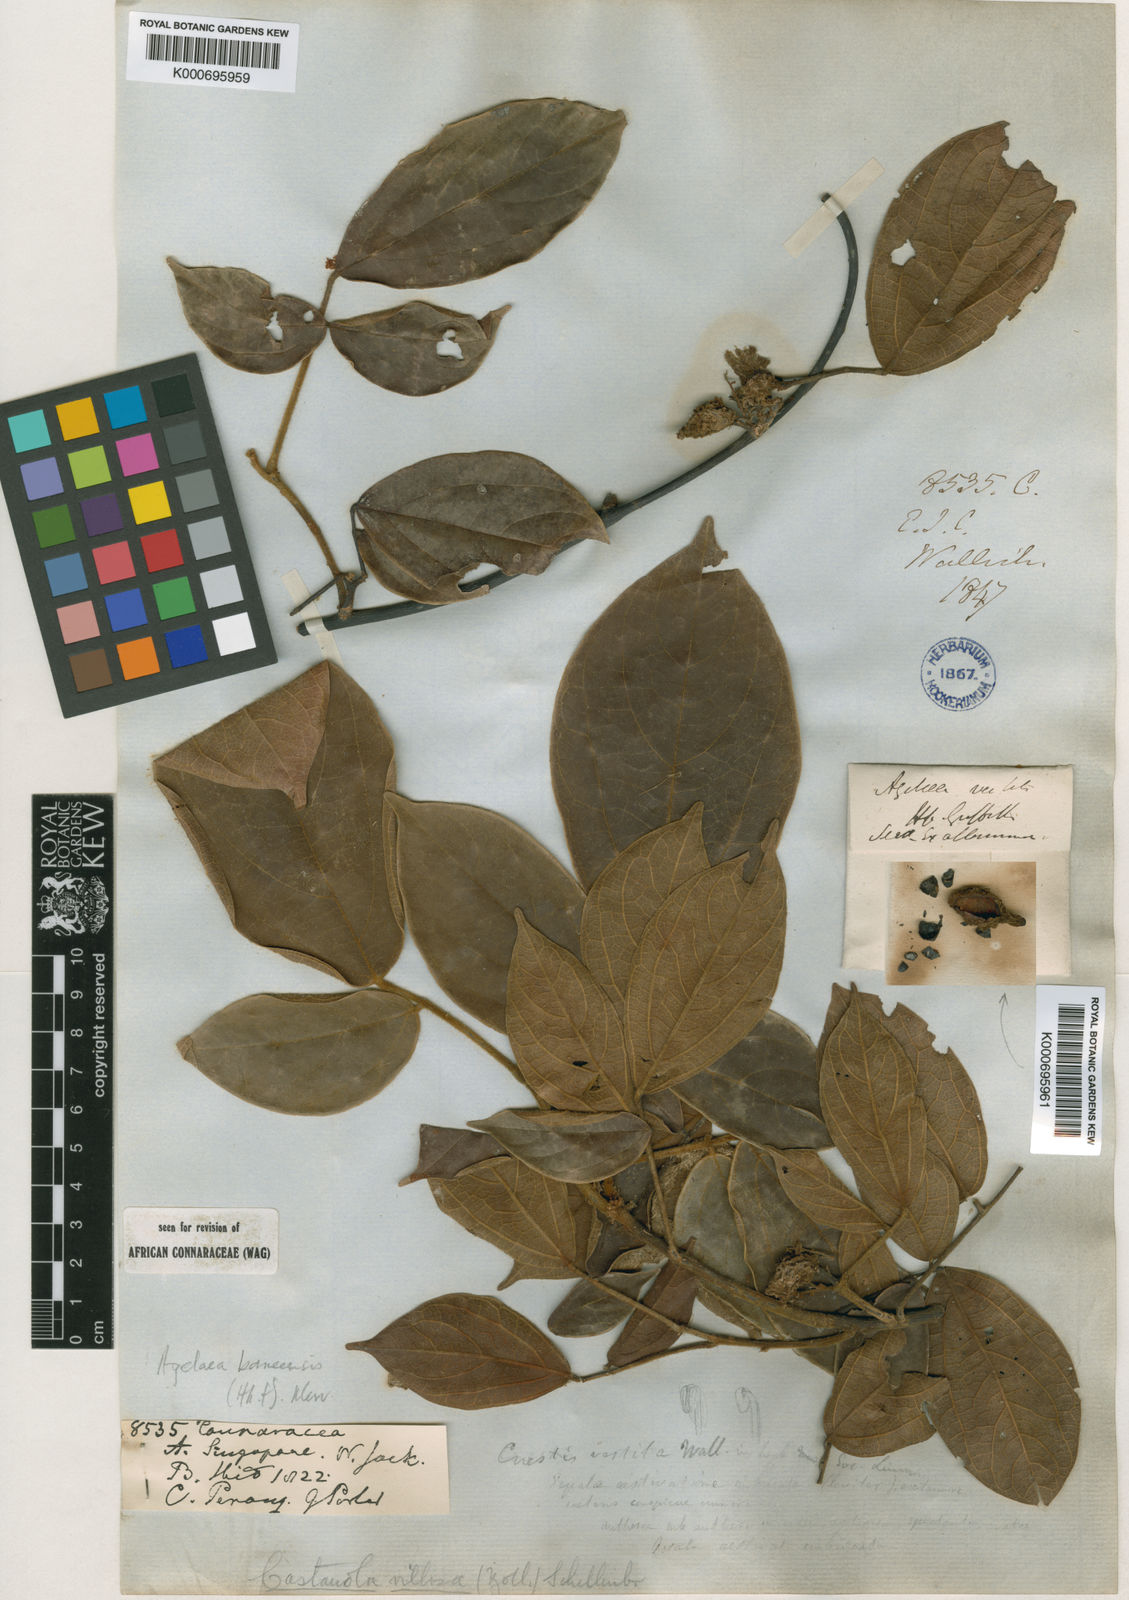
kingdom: Plantae
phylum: Tracheophyta
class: Magnoliopsida
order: Oxalidales
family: Connaraceae
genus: Agelaea
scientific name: Agelaea borneensis
